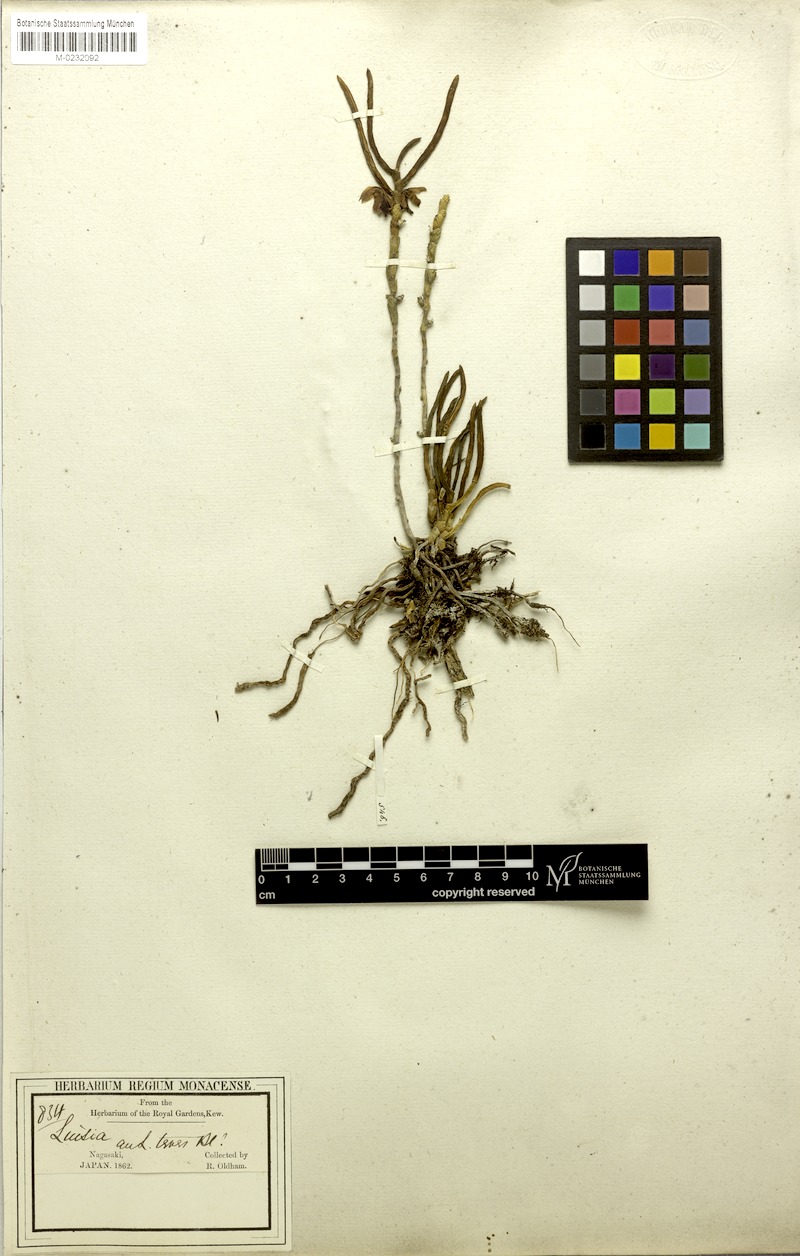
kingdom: Plantae
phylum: Tracheophyta
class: Liliopsida
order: Asparagales
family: Orchidaceae
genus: Luisia
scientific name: Luisia teres
